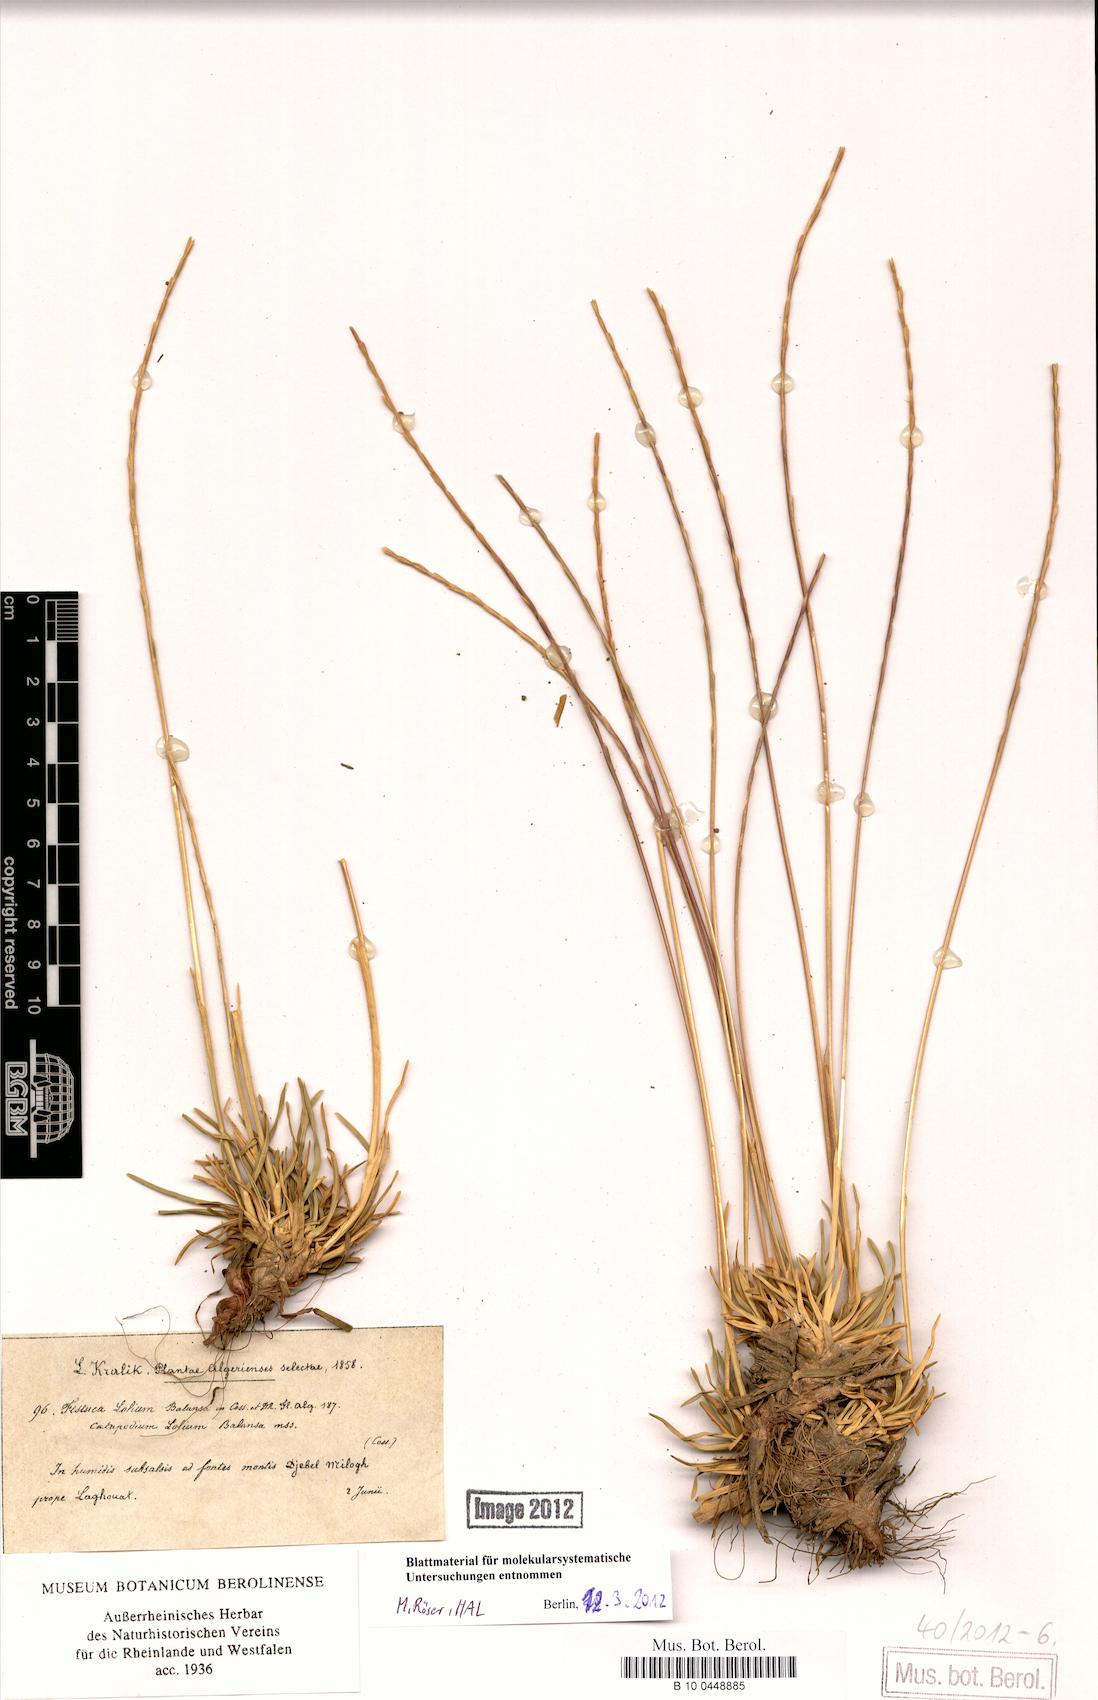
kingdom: Plantae
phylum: Tracheophyta
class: Liliopsida
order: Poales
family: Poaceae
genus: Catapodium
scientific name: Catapodium lolium
